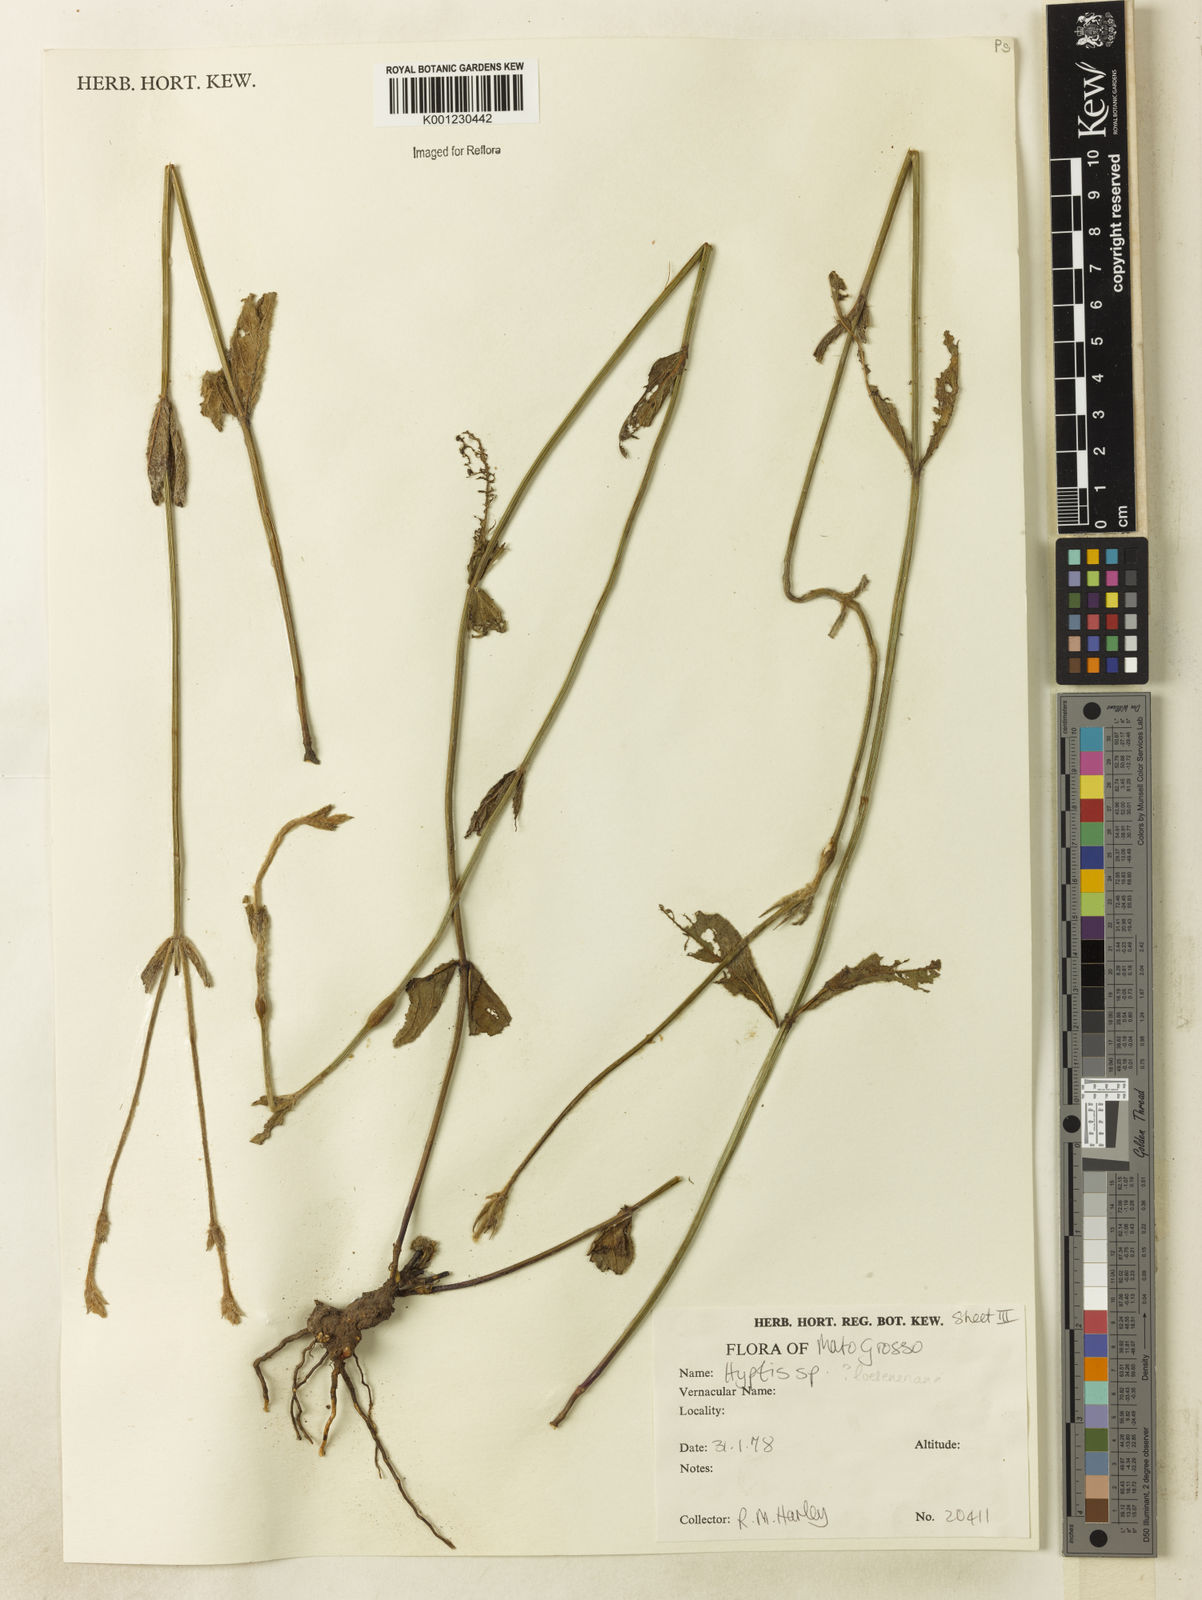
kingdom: Plantae
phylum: Tracheophyta
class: Magnoliopsida
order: Lamiales
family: Lamiaceae
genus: Hyptis
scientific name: Hyptis loeseneriana
